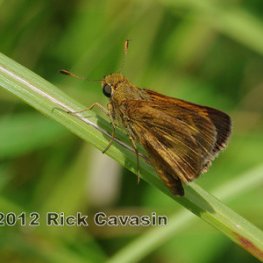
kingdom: Animalia
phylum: Arthropoda
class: Insecta
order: Lepidoptera
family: Hesperiidae
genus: Euphyes
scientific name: Euphyes conspicua
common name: Black Dash
